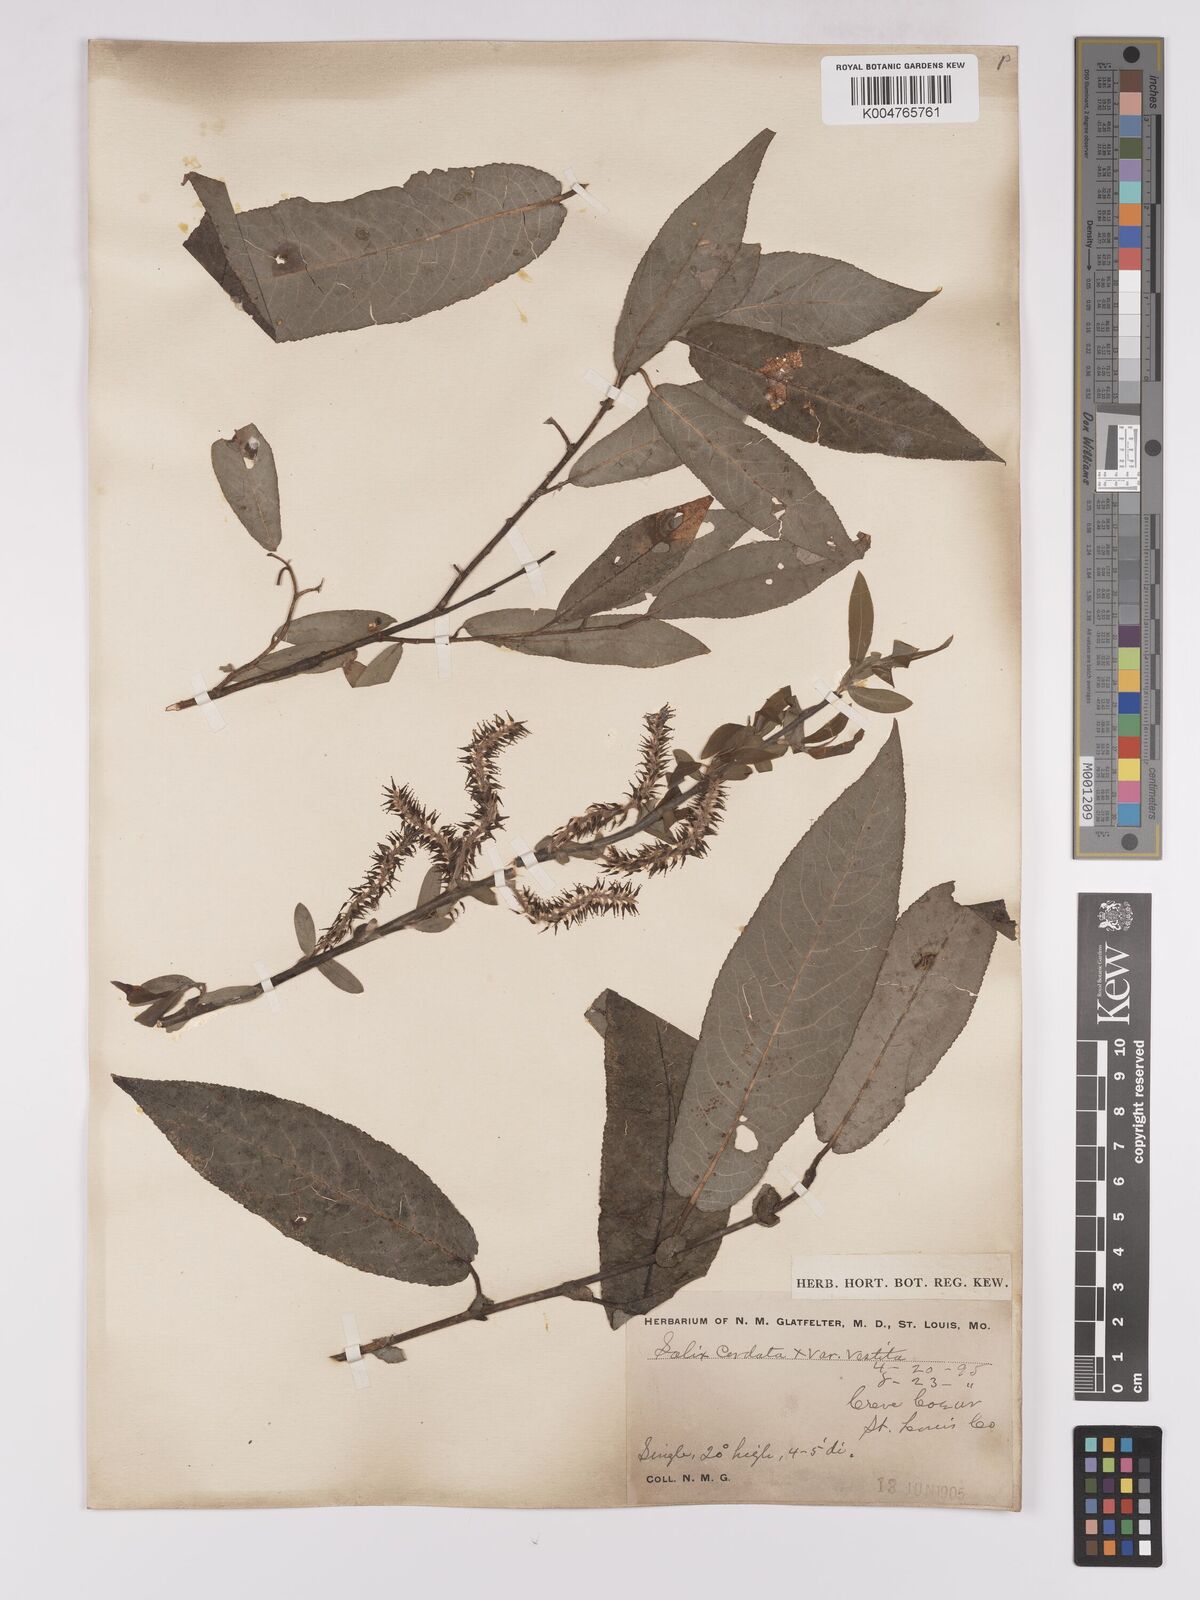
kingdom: Plantae
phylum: Tracheophyta
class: Magnoliopsida
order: Malpighiales
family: Salicaceae
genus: Salix
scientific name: Salix cordata
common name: Heart-leaf willow
